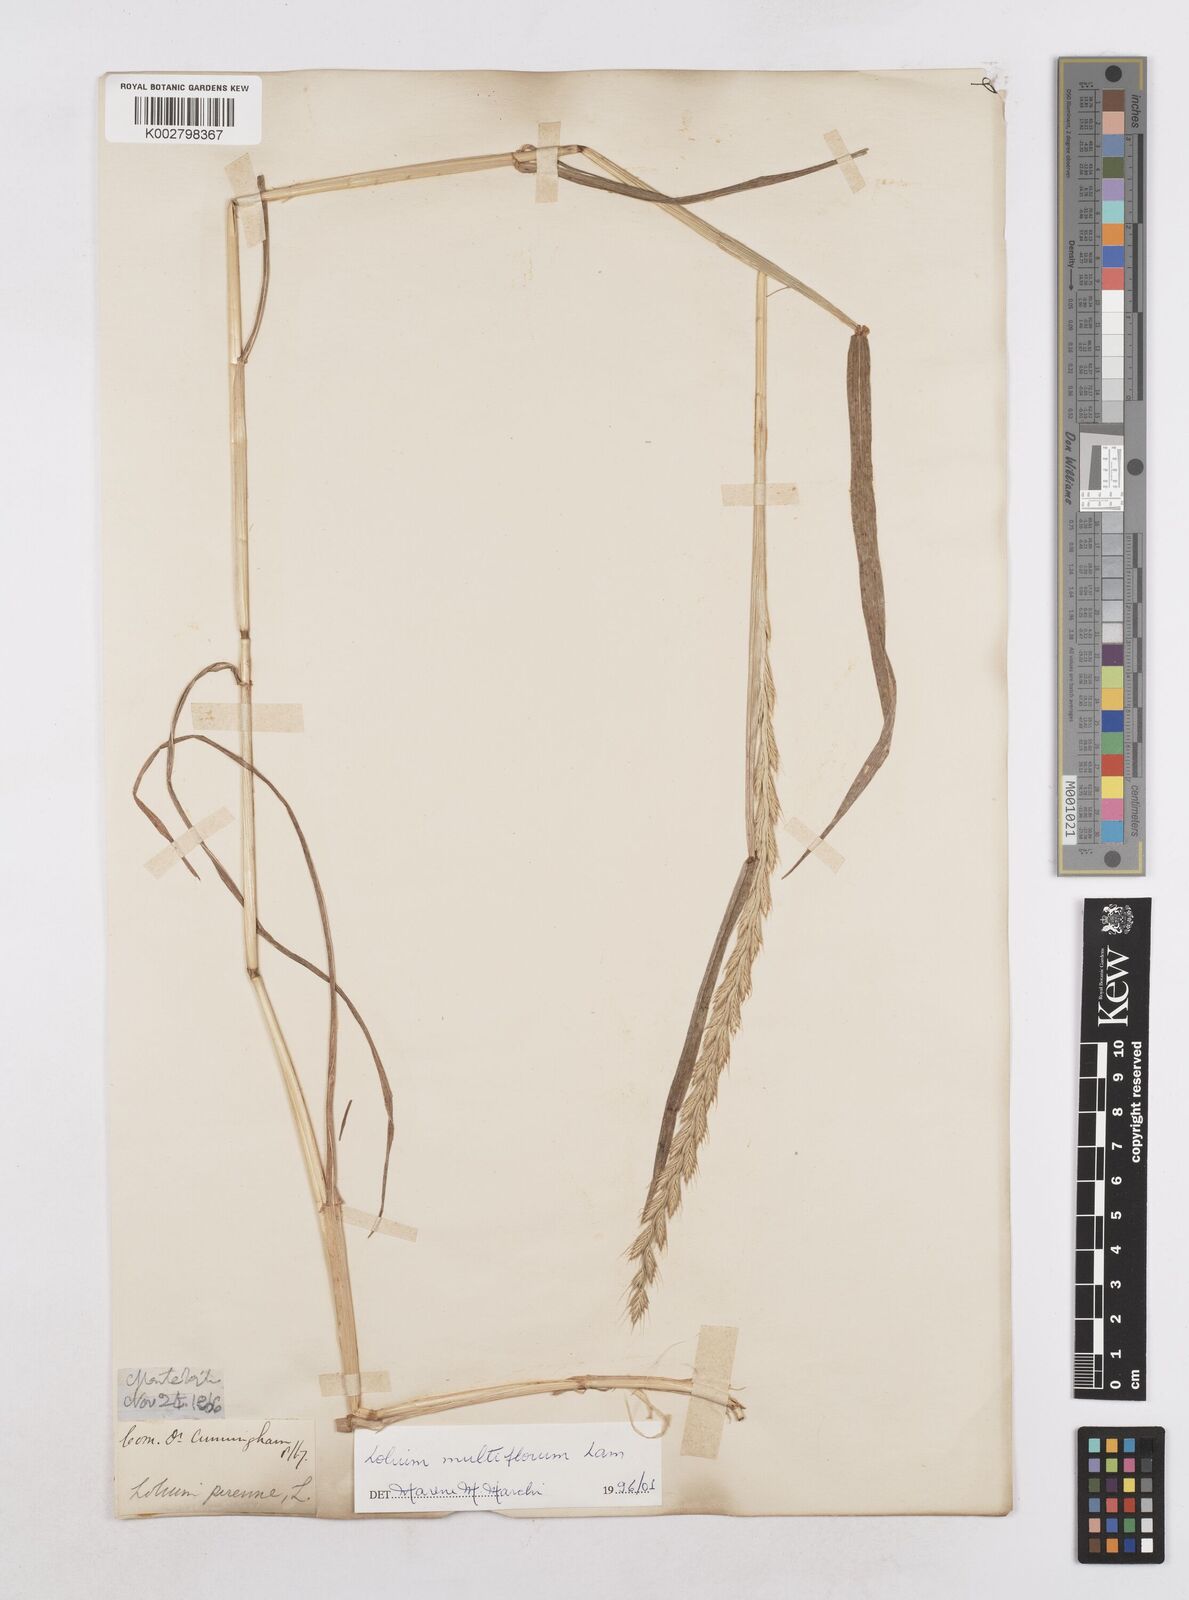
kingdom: Plantae
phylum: Tracheophyta
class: Liliopsida
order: Poales
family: Poaceae
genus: Lolium
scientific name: Lolium multiflorum
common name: Annual ryegrass
